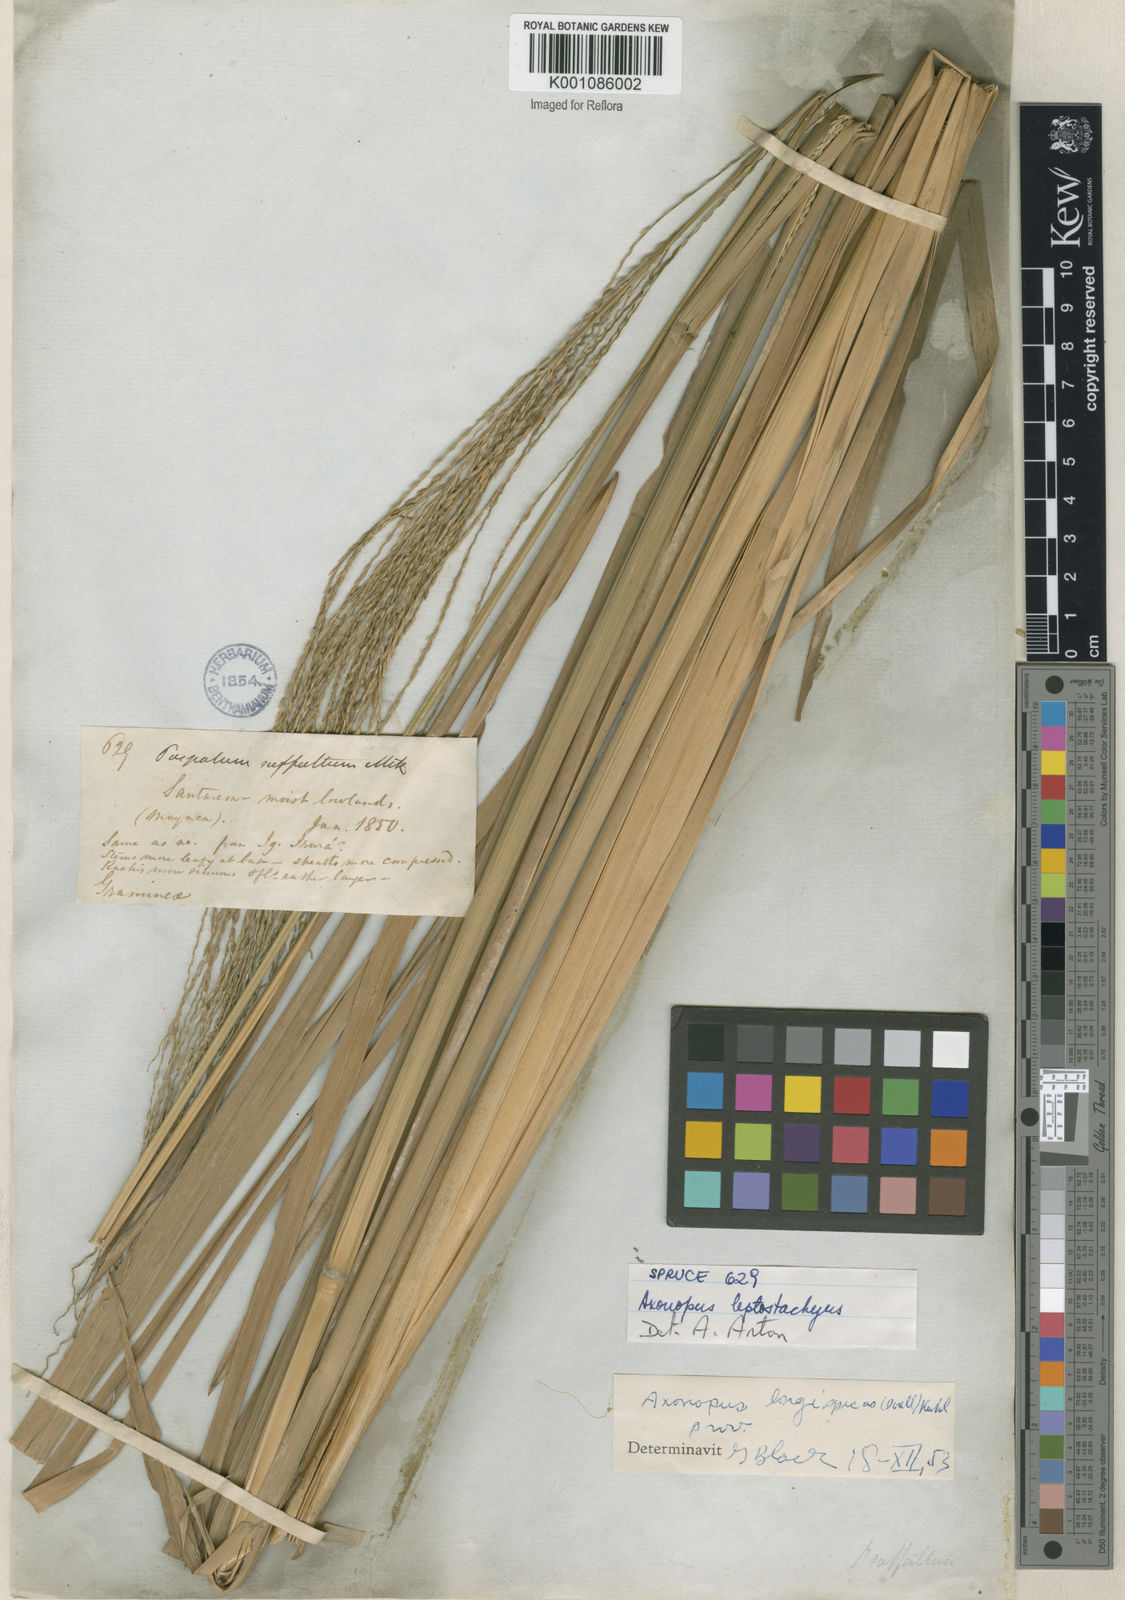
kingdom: Plantae
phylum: Tracheophyta
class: Liliopsida
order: Poales
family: Poaceae
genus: Axonopus
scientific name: Axonopus
